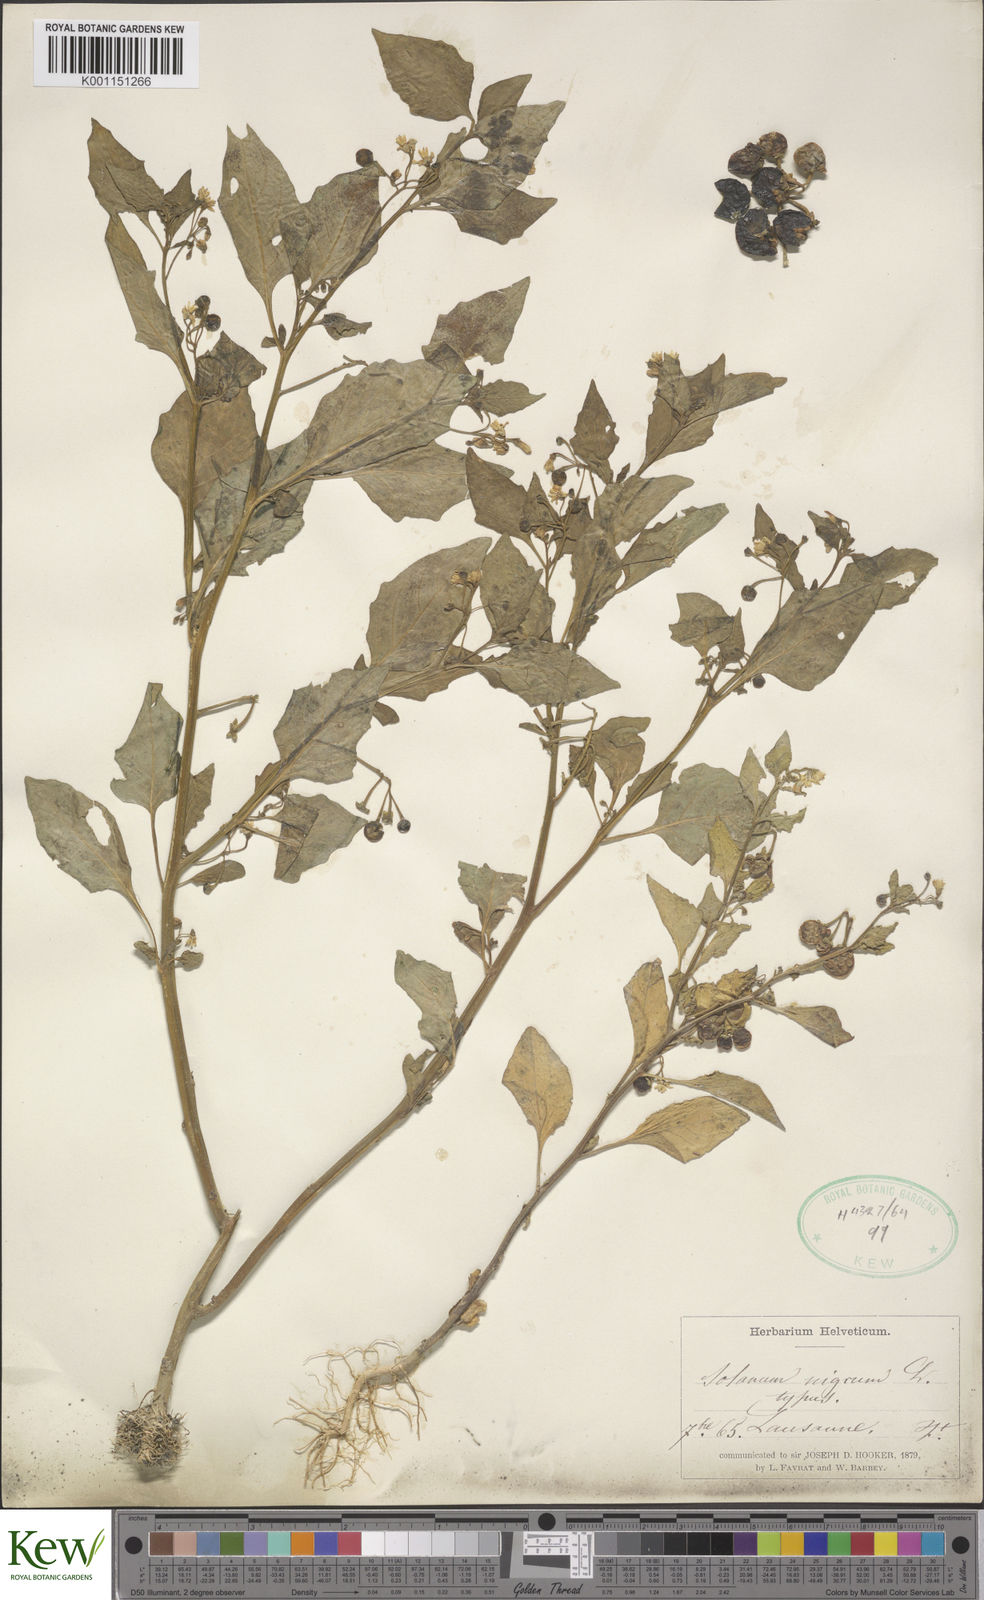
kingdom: Plantae
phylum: Tracheophyta
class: Magnoliopsida
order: Solanales
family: Solanaceae
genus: Solanum
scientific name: Solanum nigrum
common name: Black nightshade
